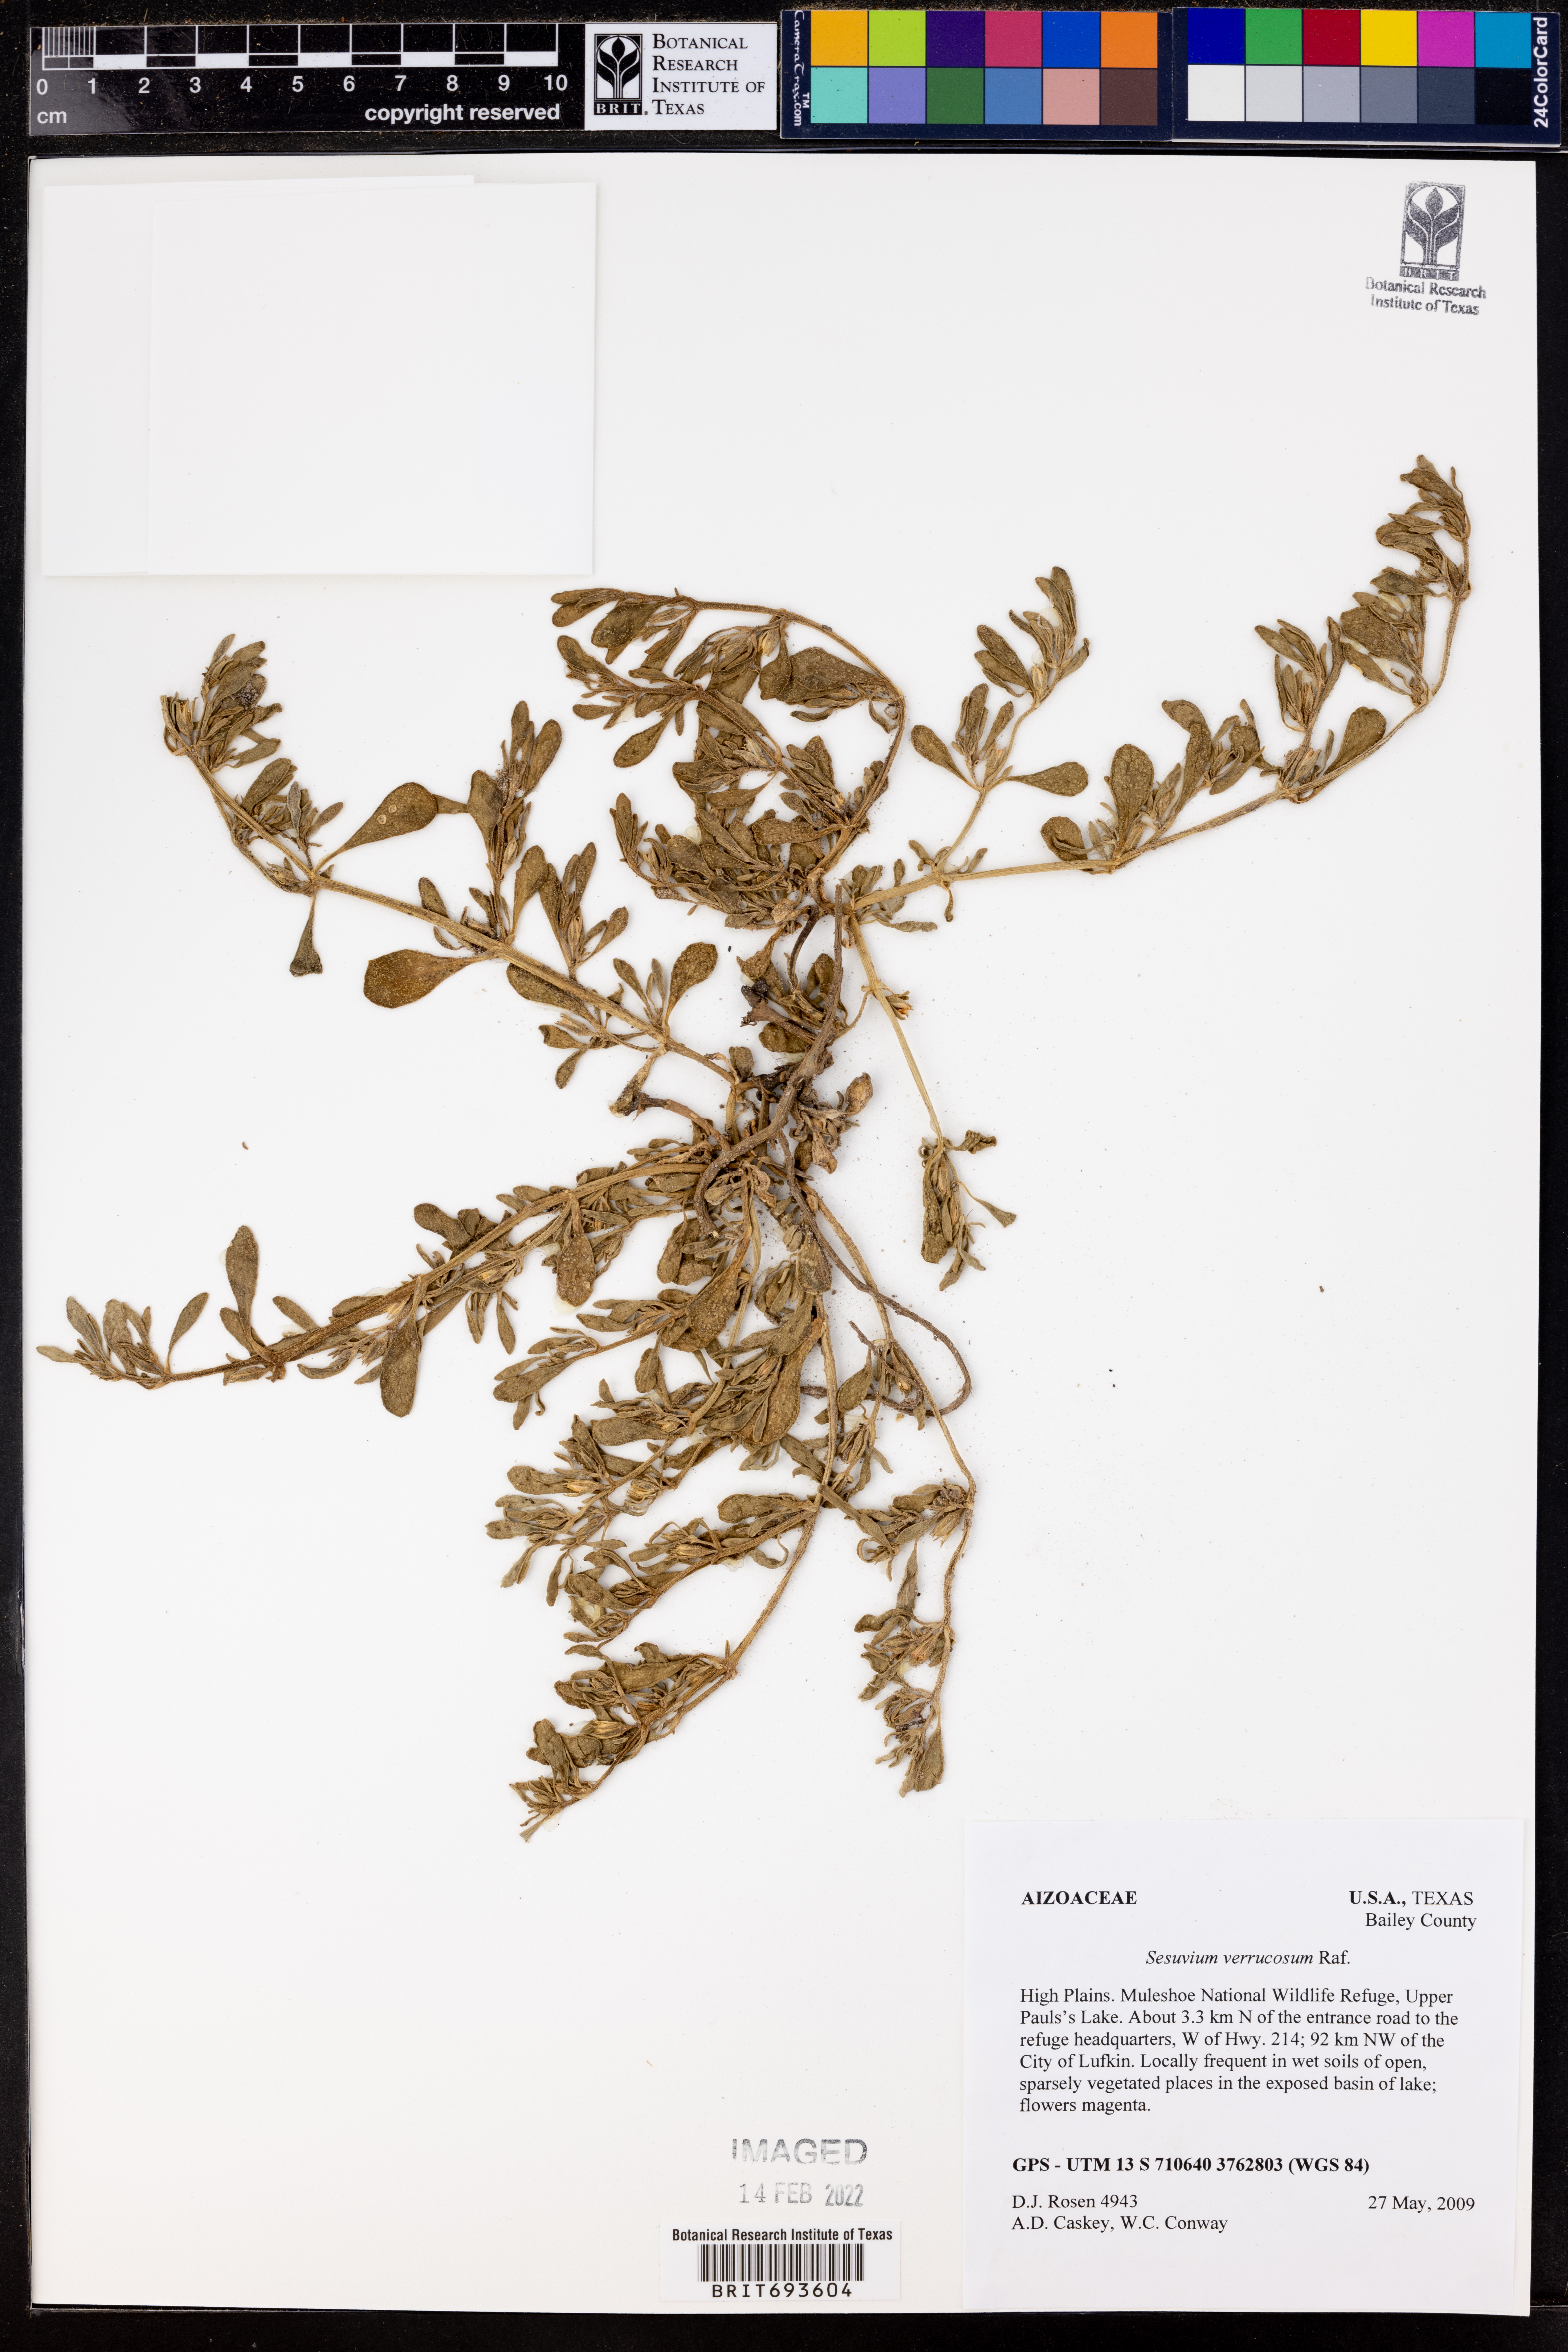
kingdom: Plantae
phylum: Tracheophyta
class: Magnoliopsida
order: Caryophyllales
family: Aizoaceae
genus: Sesuvium
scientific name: Sesuvium revolutifolium
